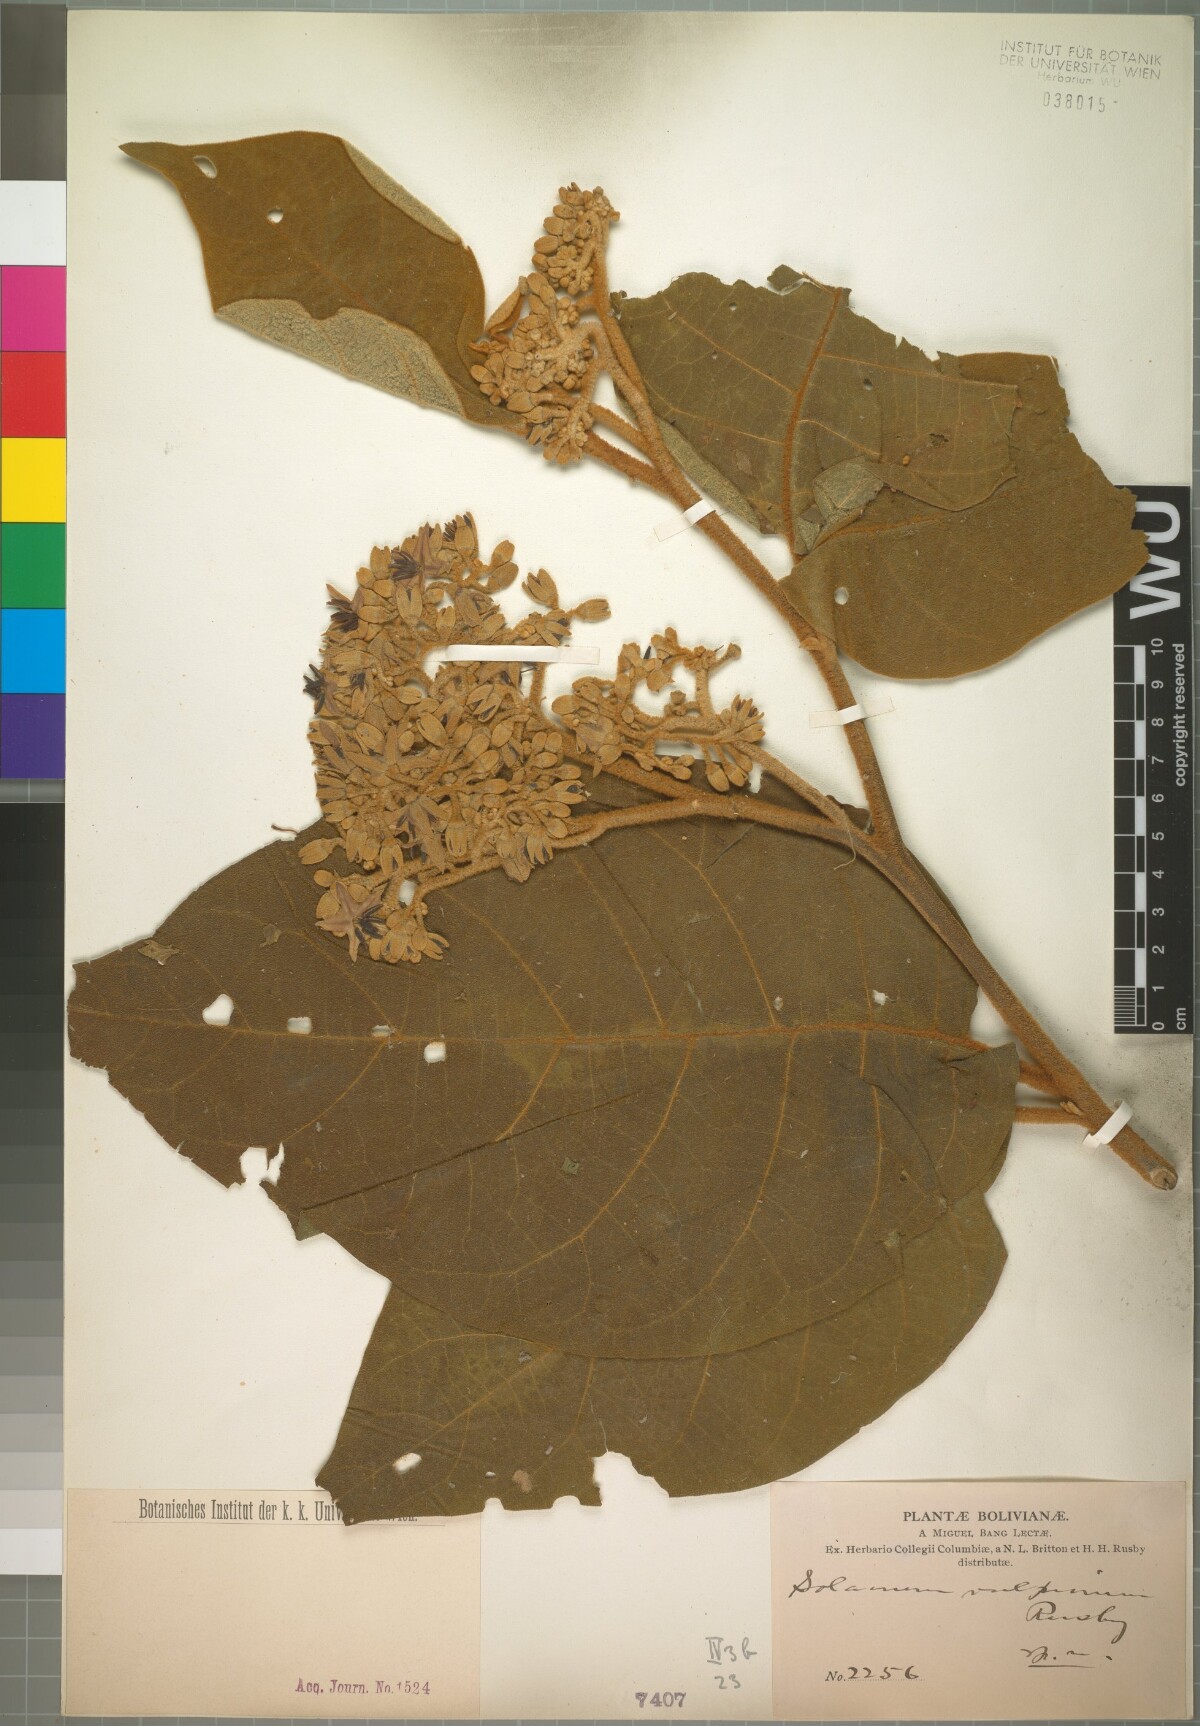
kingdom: Plantae
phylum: Tracheophyta
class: Magnoliopsida
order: Solanales
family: Solanaceae
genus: Solanum
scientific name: Solanum actaeibotrys
